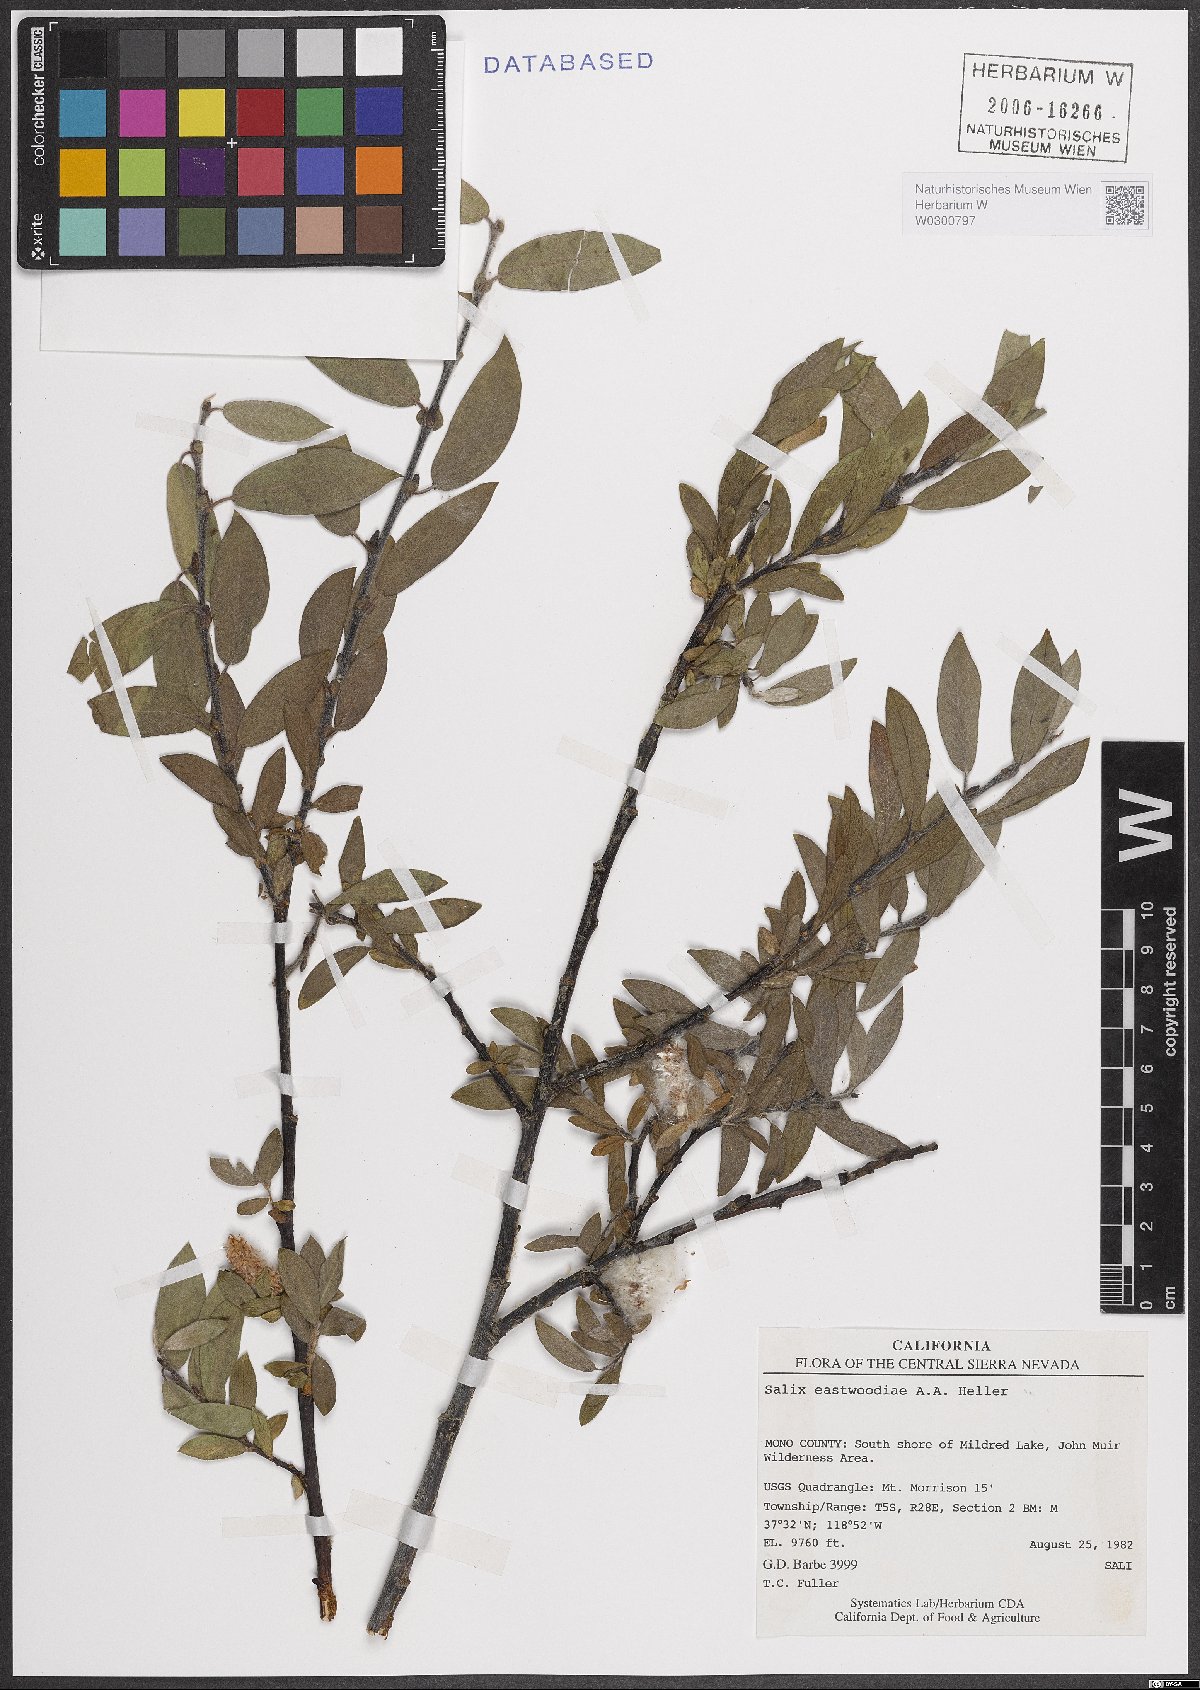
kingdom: Plantae
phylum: Tracheophyta
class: Magnoliopsida
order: Malpighiales
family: Salicaceae
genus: Salix
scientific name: Salix eastwoodiae
